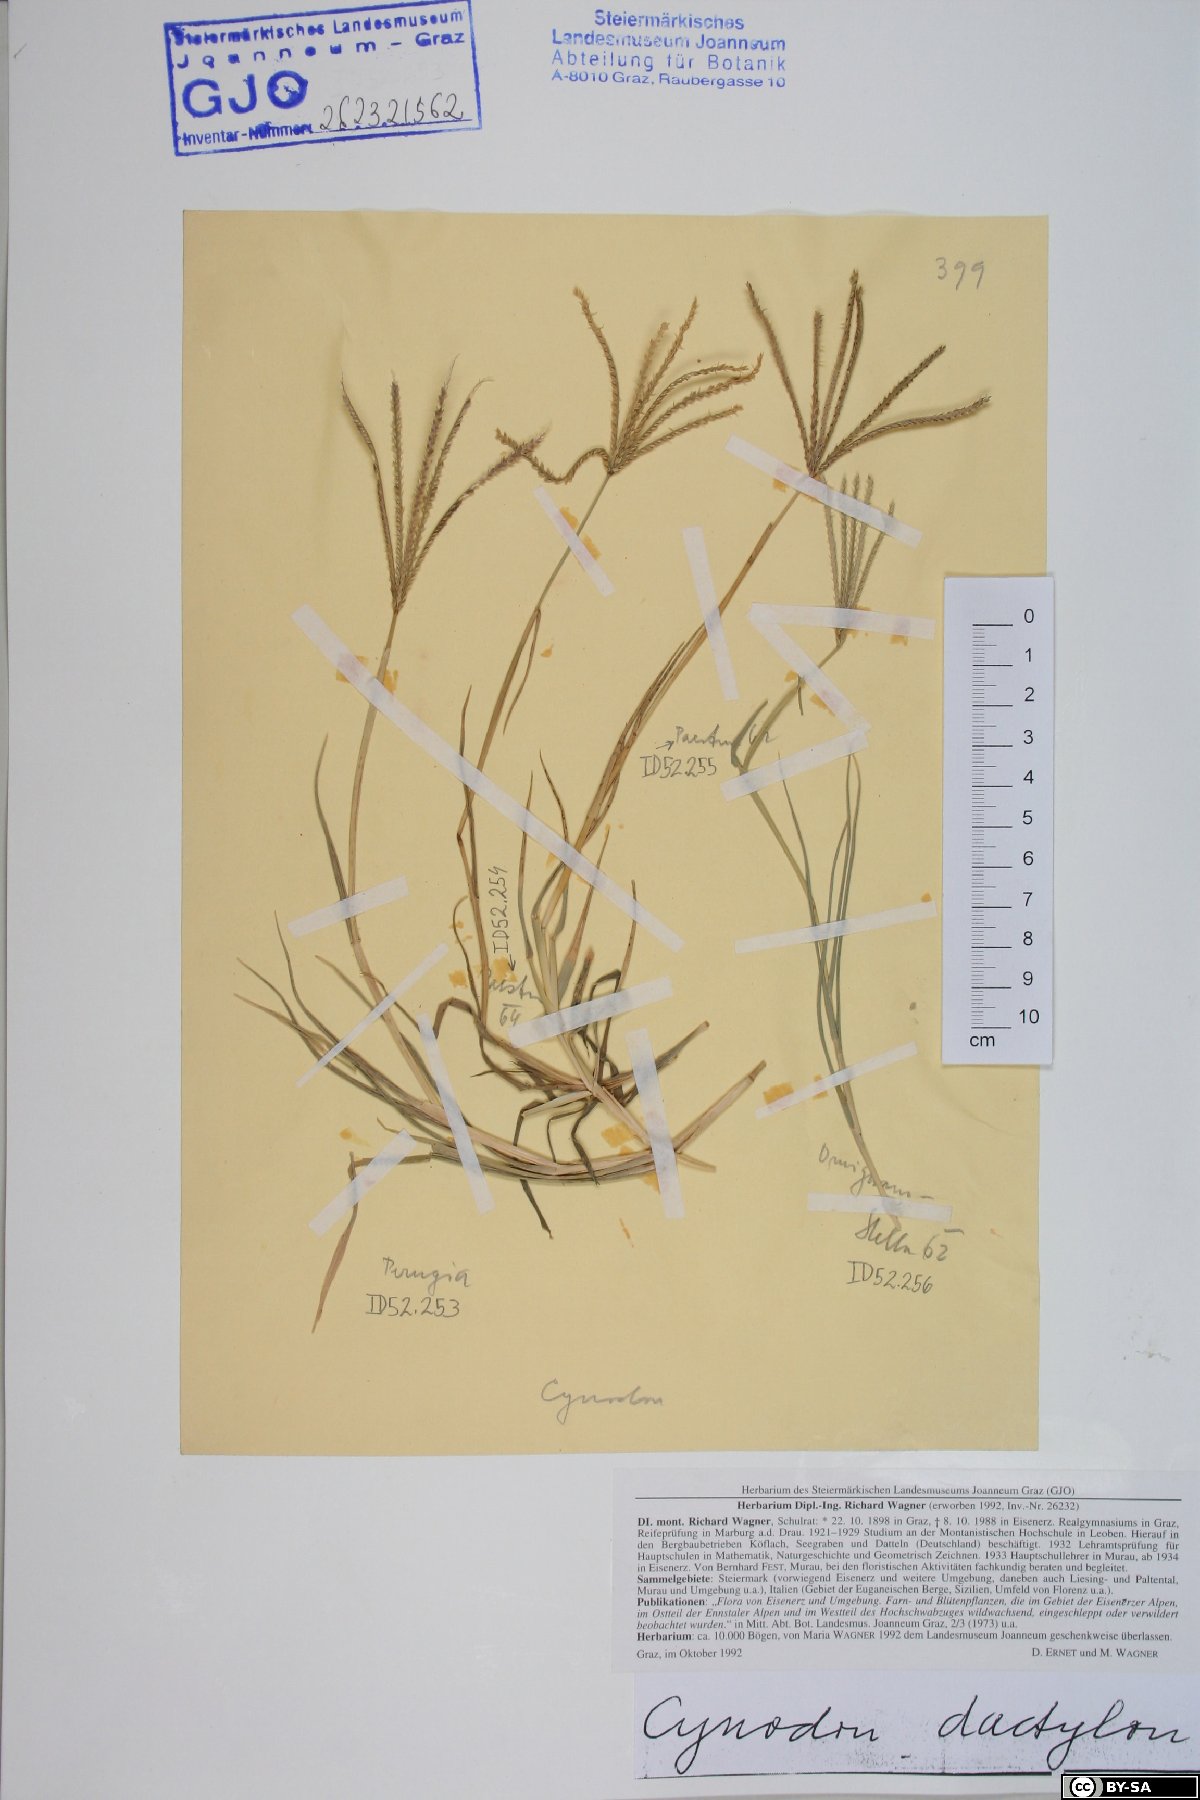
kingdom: Plantae
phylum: Tracheophyta
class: Liliopsida
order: Poales
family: Poaceae
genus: Cynodon
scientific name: Cynodon dactylon
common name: Bermuda grass
